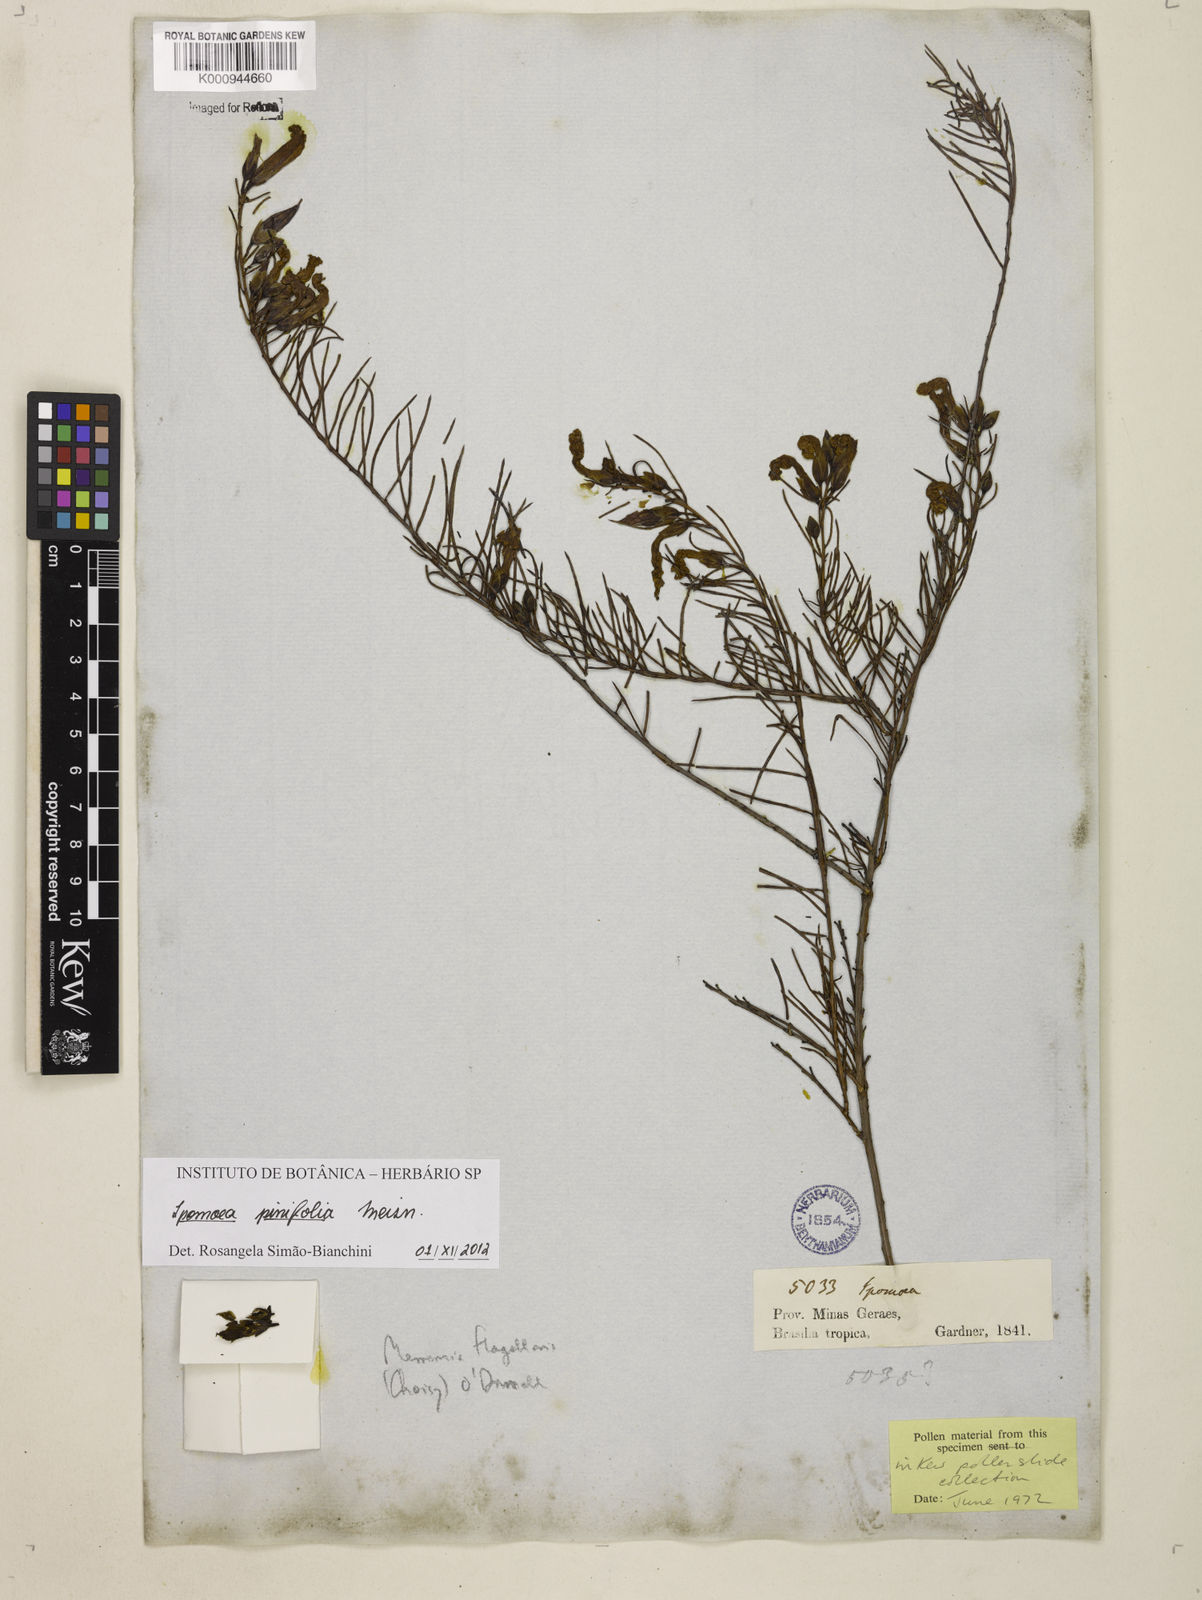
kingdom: Plantae
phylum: Tracheophyta
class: Magnoliopsida
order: Solanales
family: Convolvulaceae
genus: Ipomoea
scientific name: Ipomoea pinifolia
